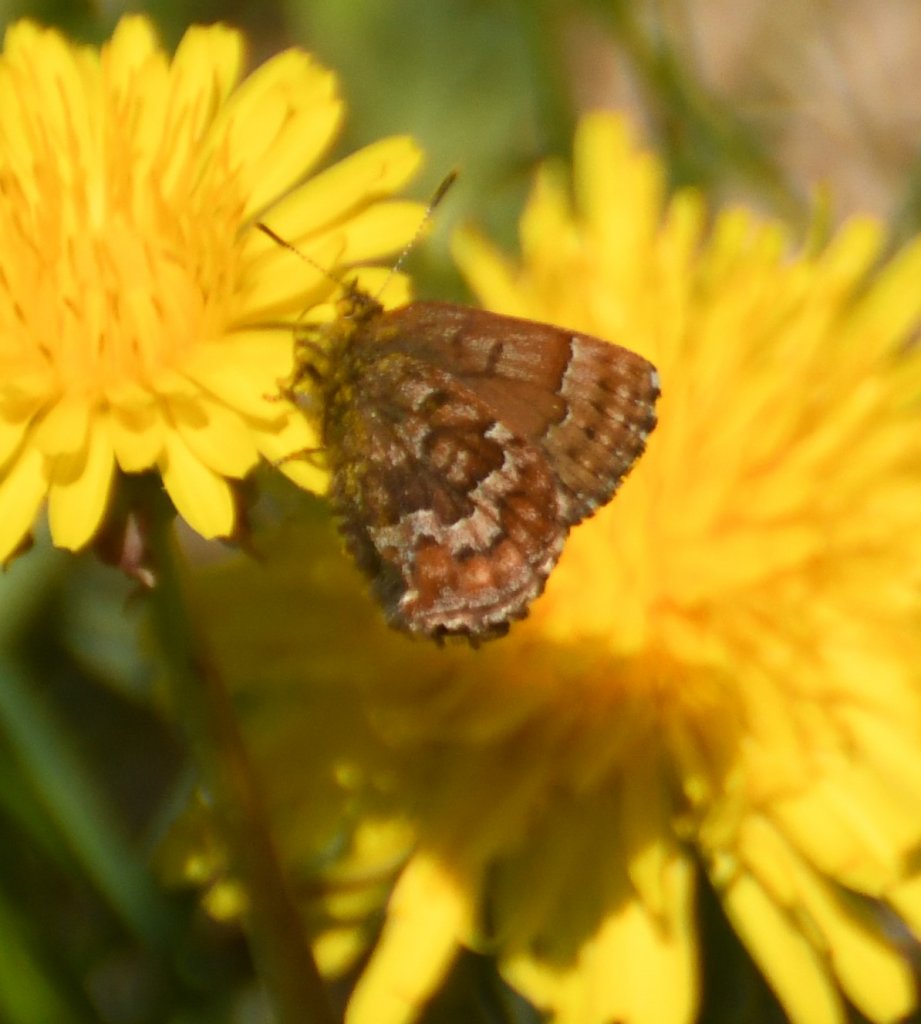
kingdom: Animalia
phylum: Arthropoda
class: Insecta
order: Lepidoptera
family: Lycaenidae
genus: Incisalia
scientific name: Incisalia niphon
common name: Eastern Pine Elfin
